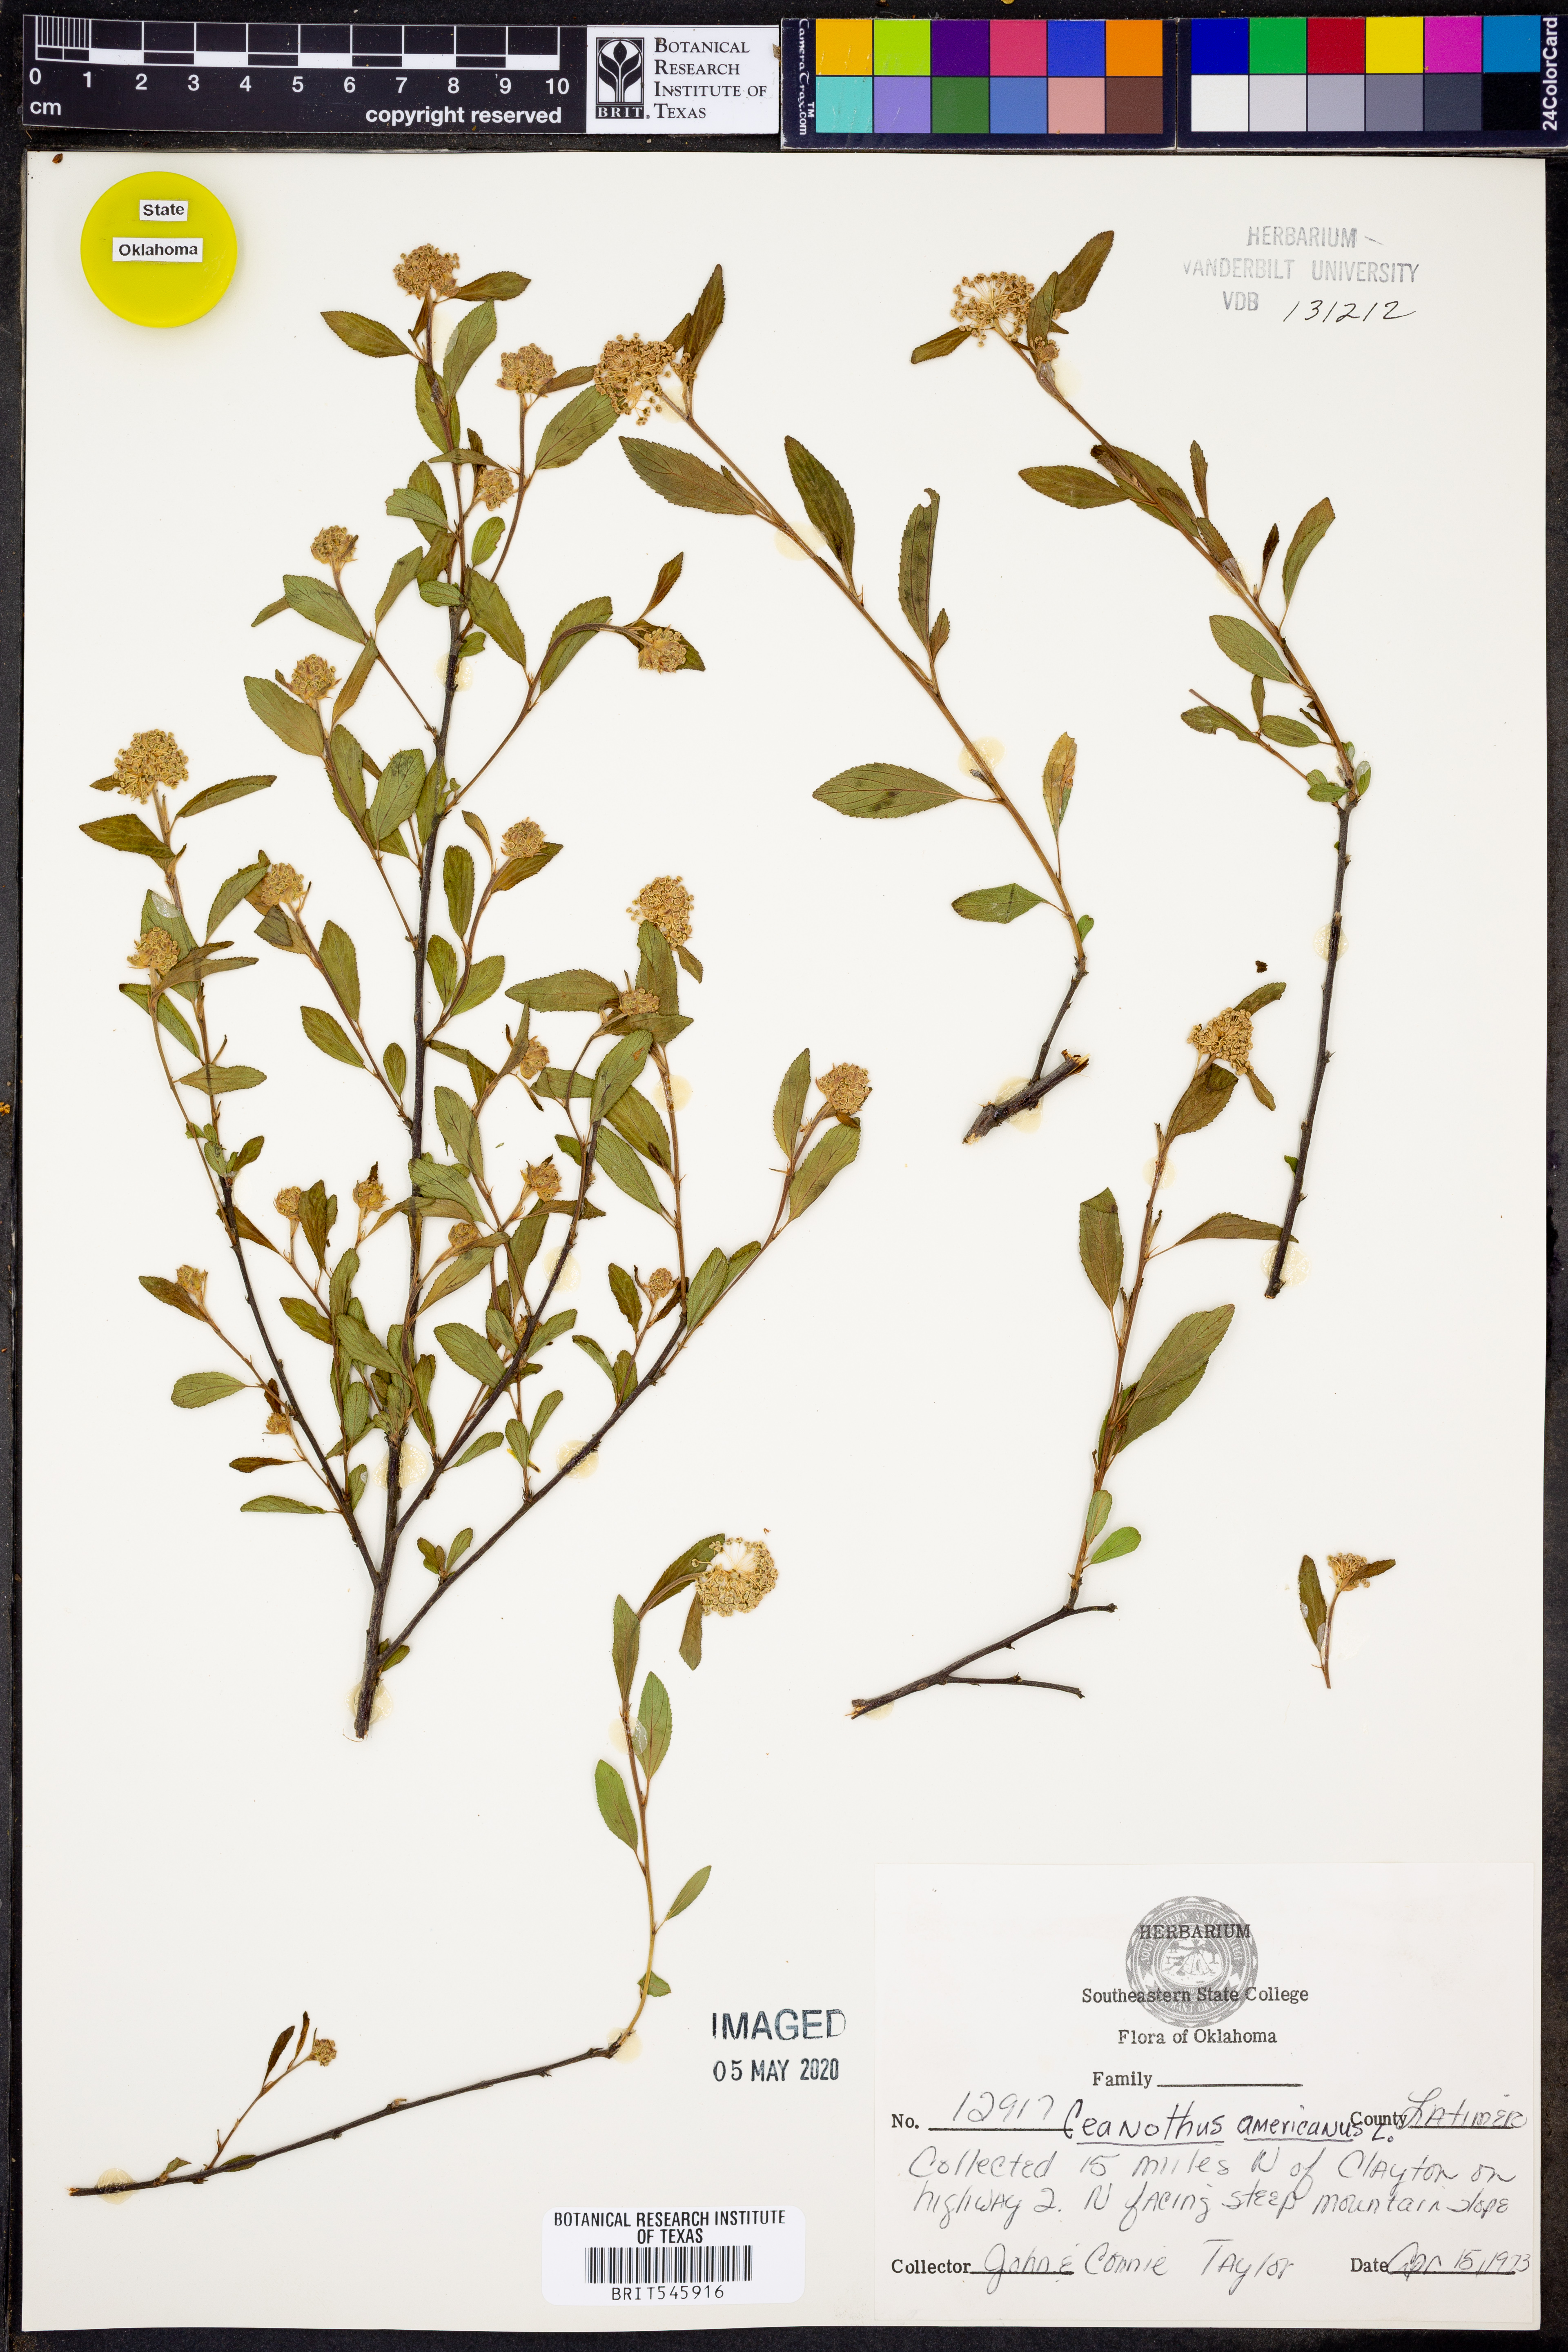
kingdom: Plantae
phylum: Tracheophyta
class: Magnoliopsida
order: Rosales
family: Rhamnaceae
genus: Ceanothus
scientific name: Ceanothus americanus
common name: Redroot
